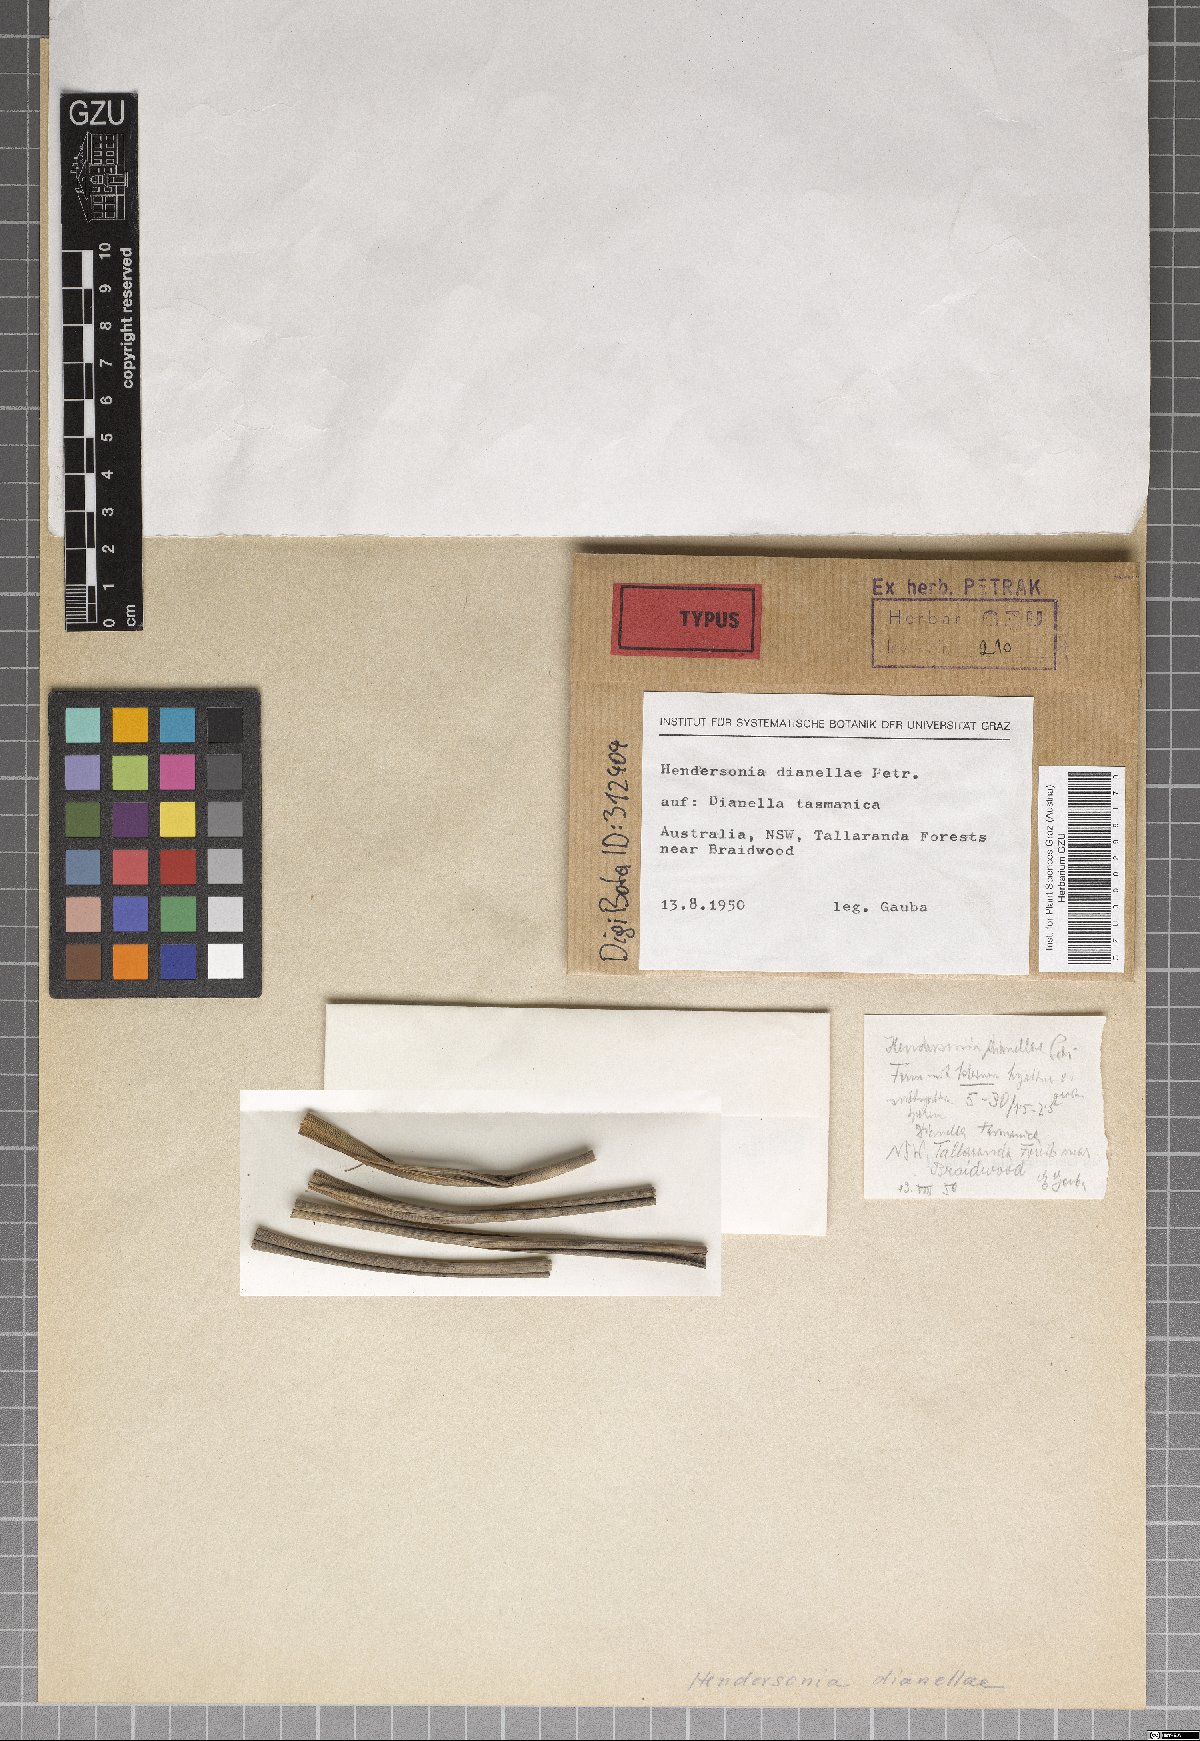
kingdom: Fungi
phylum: Ascomycota
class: Dothideomycetes
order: Pleosporales
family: Phaeosphaeriaceae
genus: Hendersonia
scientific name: Hendersonia dianellae
